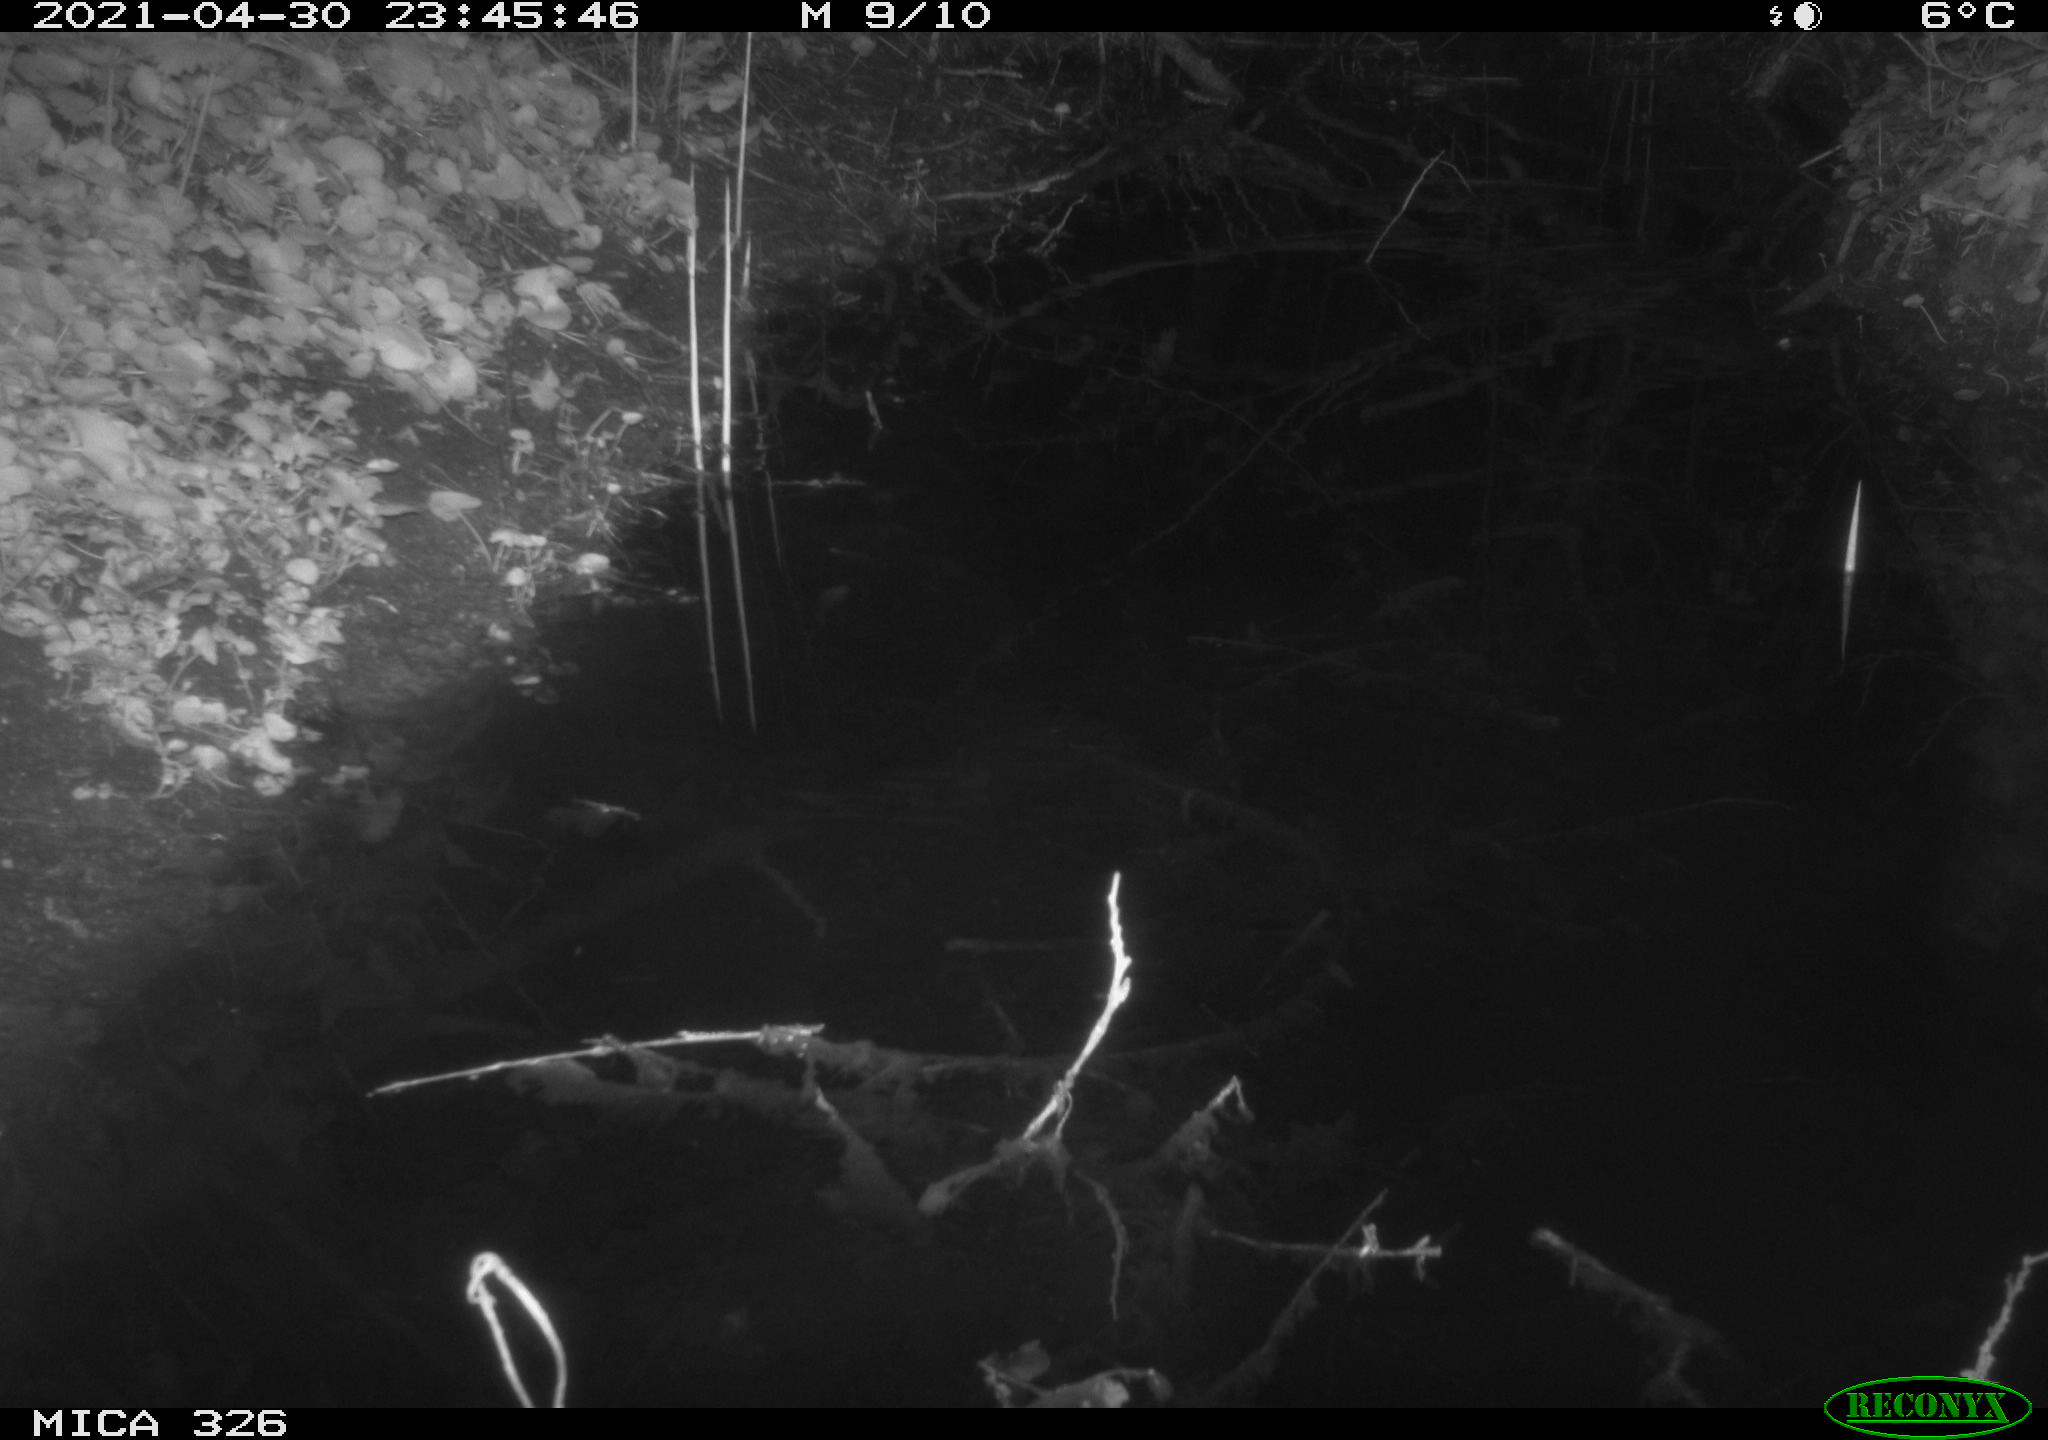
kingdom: Animalia
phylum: Chordata
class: Mammalia
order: Rodentia
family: Muridae
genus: Rattus
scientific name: Rattus norvegicus
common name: Brown rat
